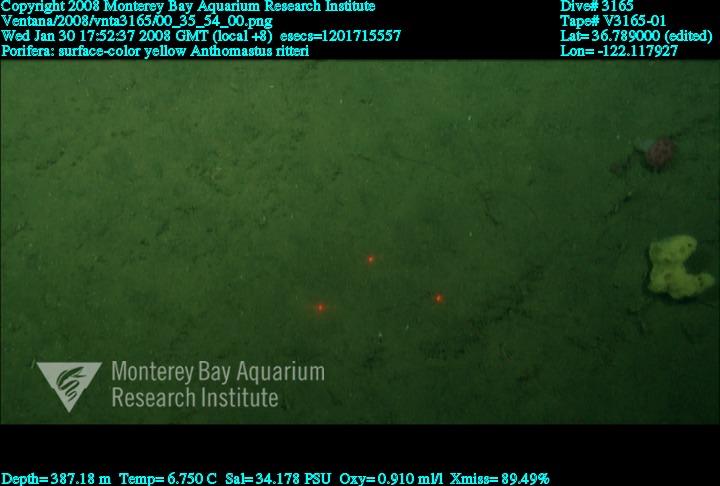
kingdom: Animalia
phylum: Porifera
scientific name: Porifera
